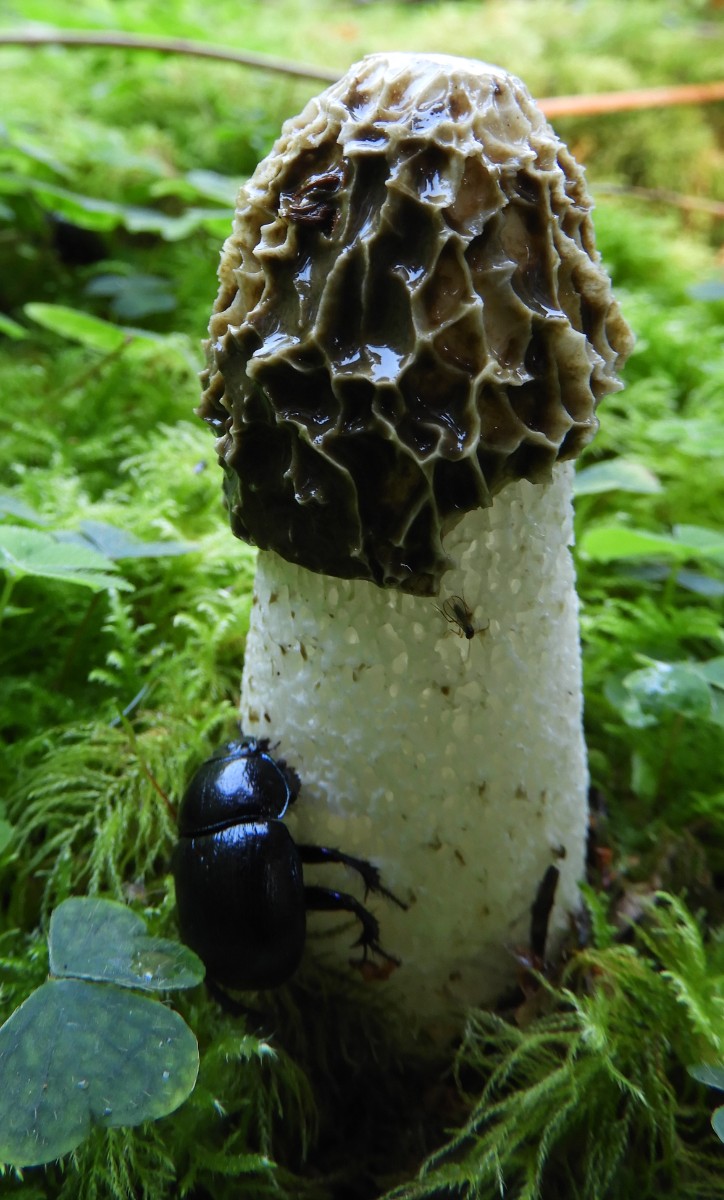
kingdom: Fungi
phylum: Basidiomycota
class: Agaricomycetes
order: Phallales
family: Phallaceae
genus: Phallus
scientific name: Phallus impudicus
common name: almindelig stinksvamp
